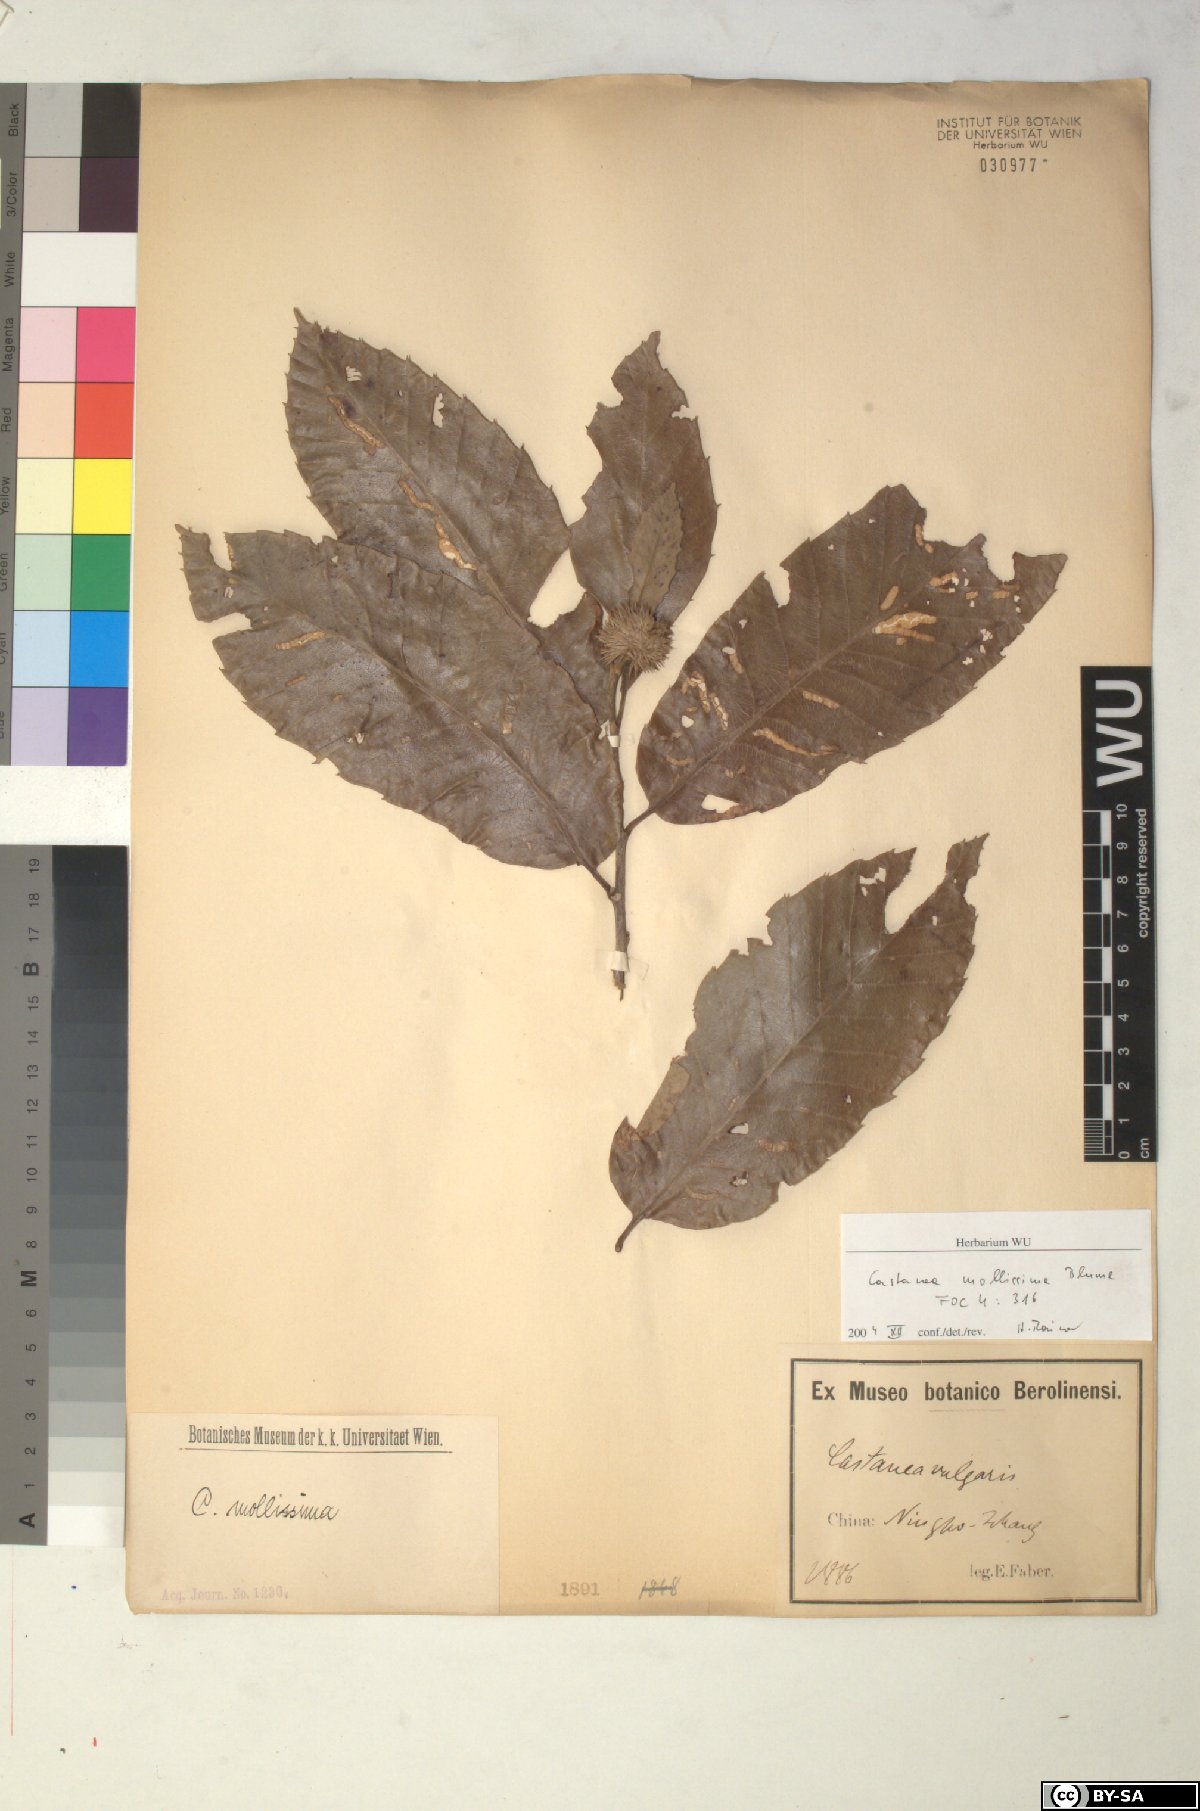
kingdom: Plantae
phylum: Tracheophyta
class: Magnoliopsida
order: Fagales
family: Fagaceae
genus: Castanea
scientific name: Castanea mollissima
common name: Chinese chestnut
